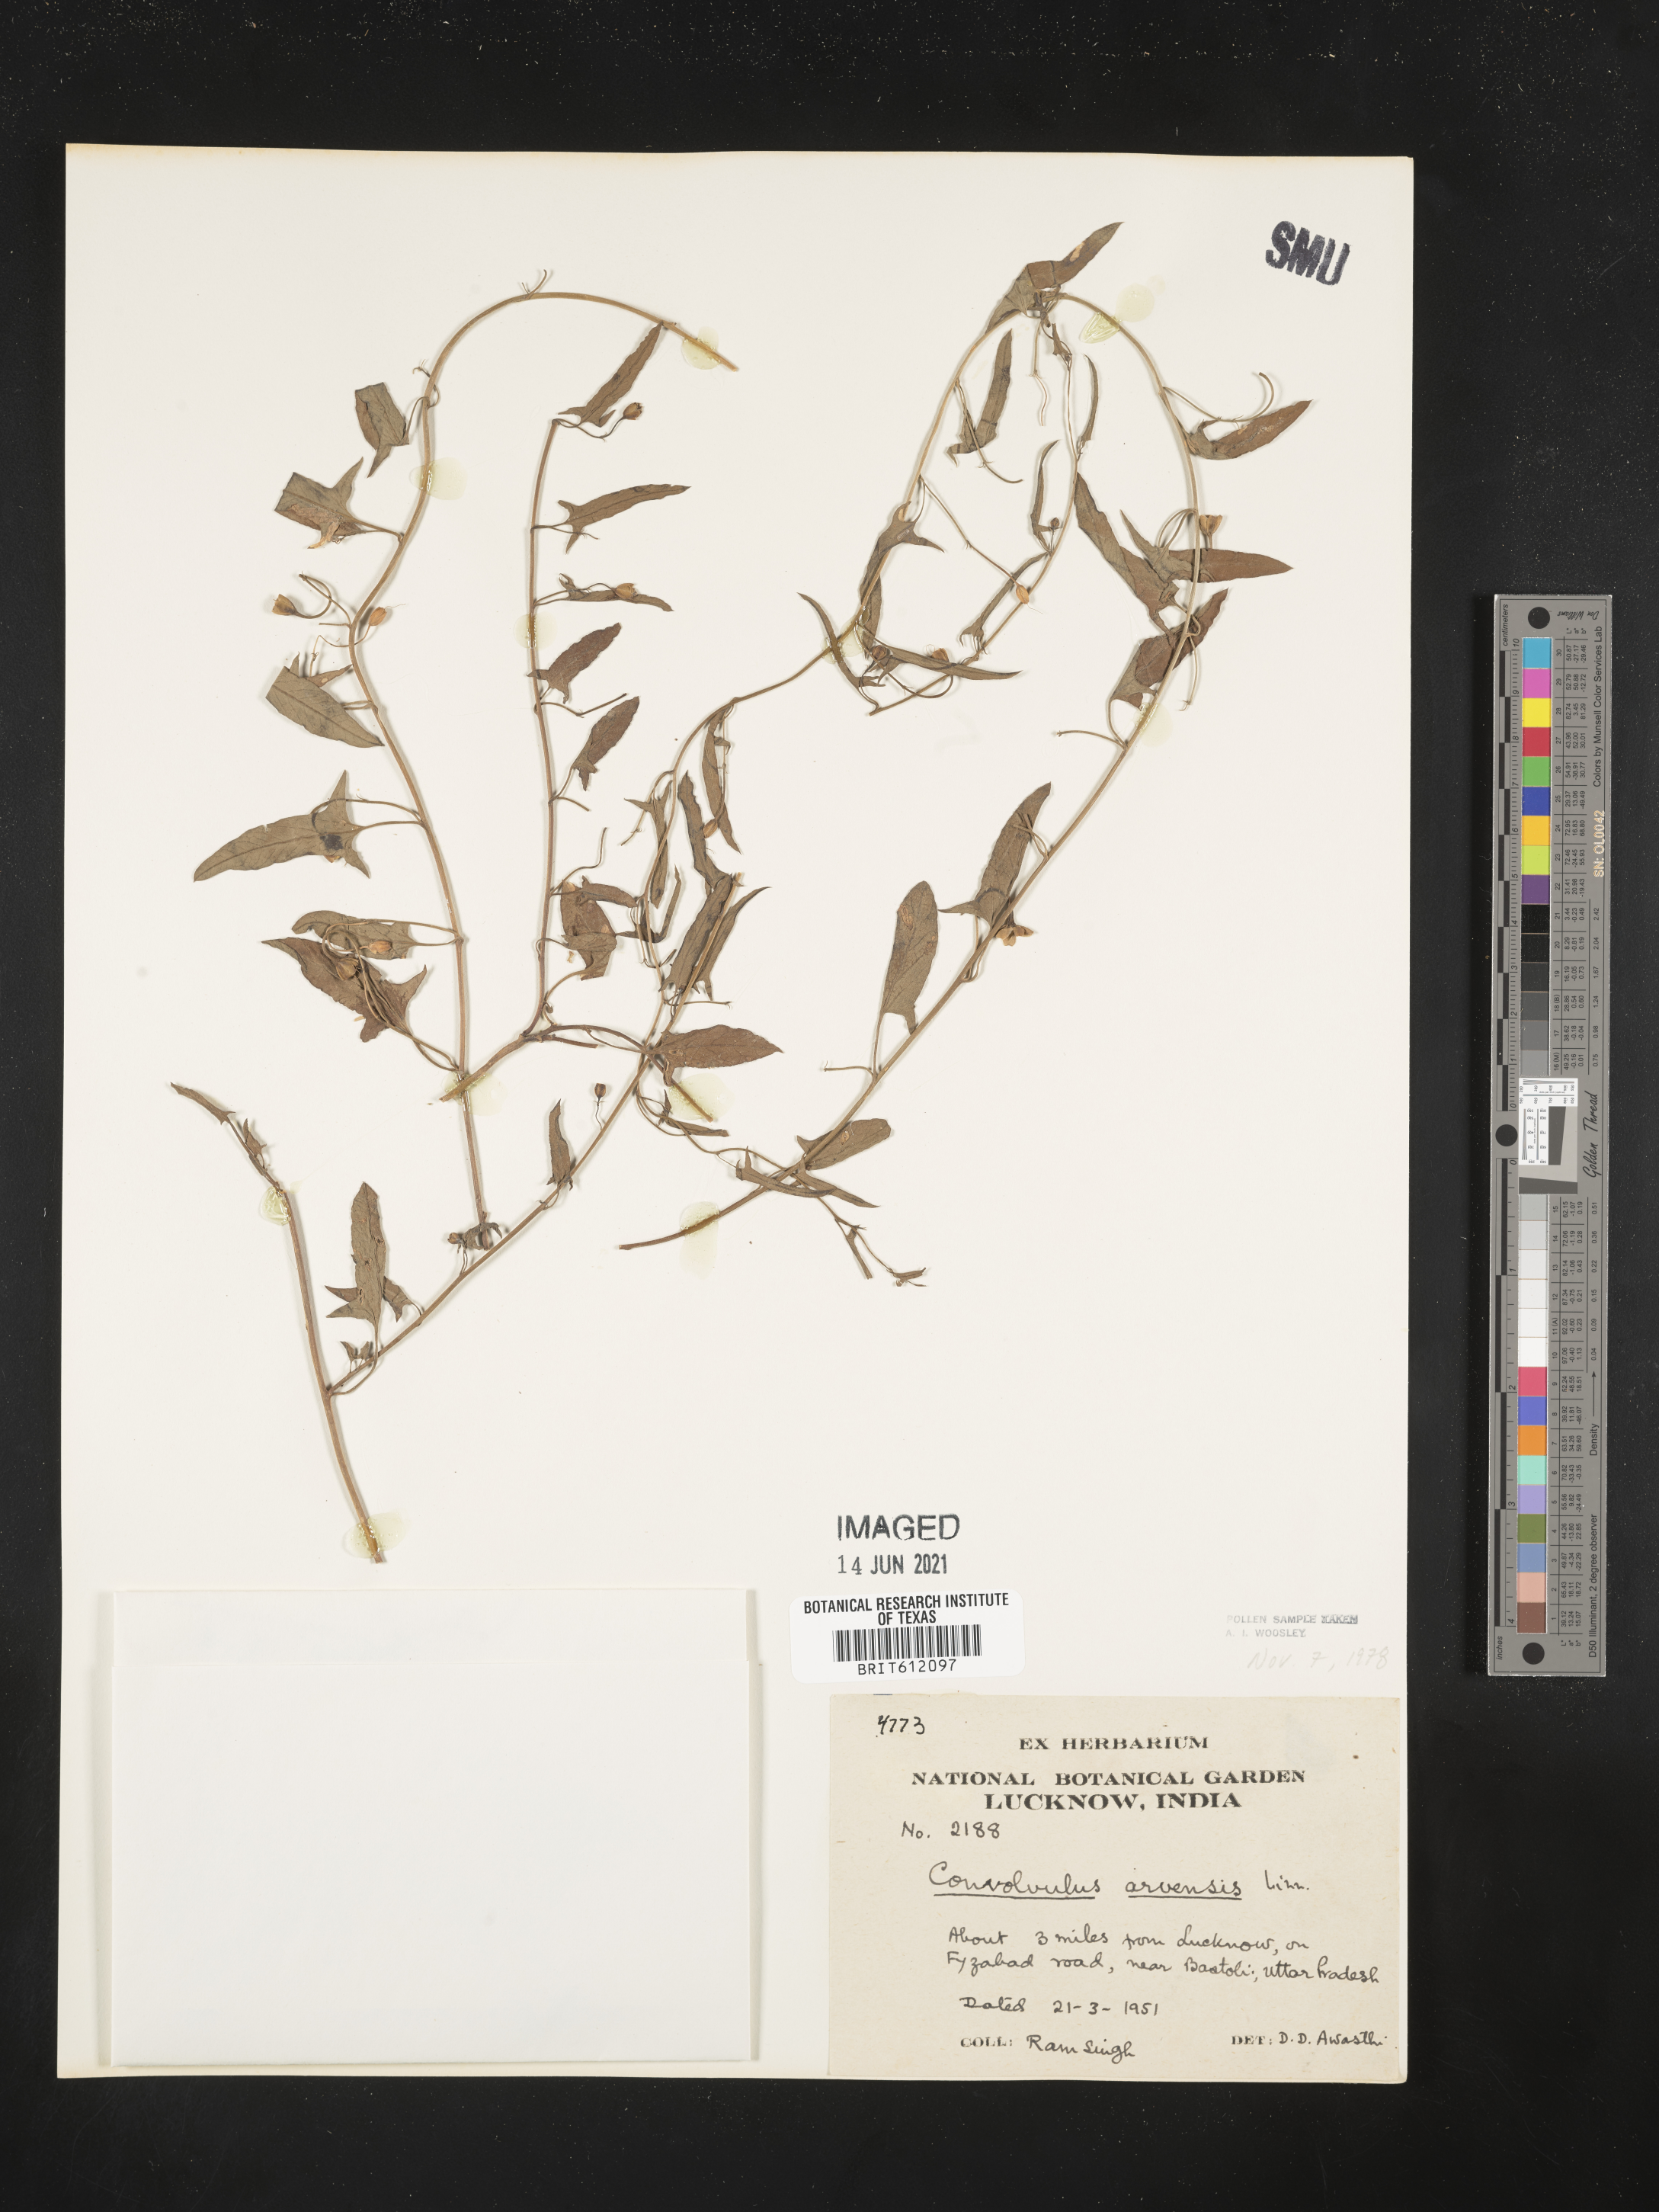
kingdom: Plantae
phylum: Tracheophyta
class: Magnoliopsida
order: Solanales
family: Convolvulaceae
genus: Convolvulus
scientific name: Convolvulus arvensis
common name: Field bindweed
